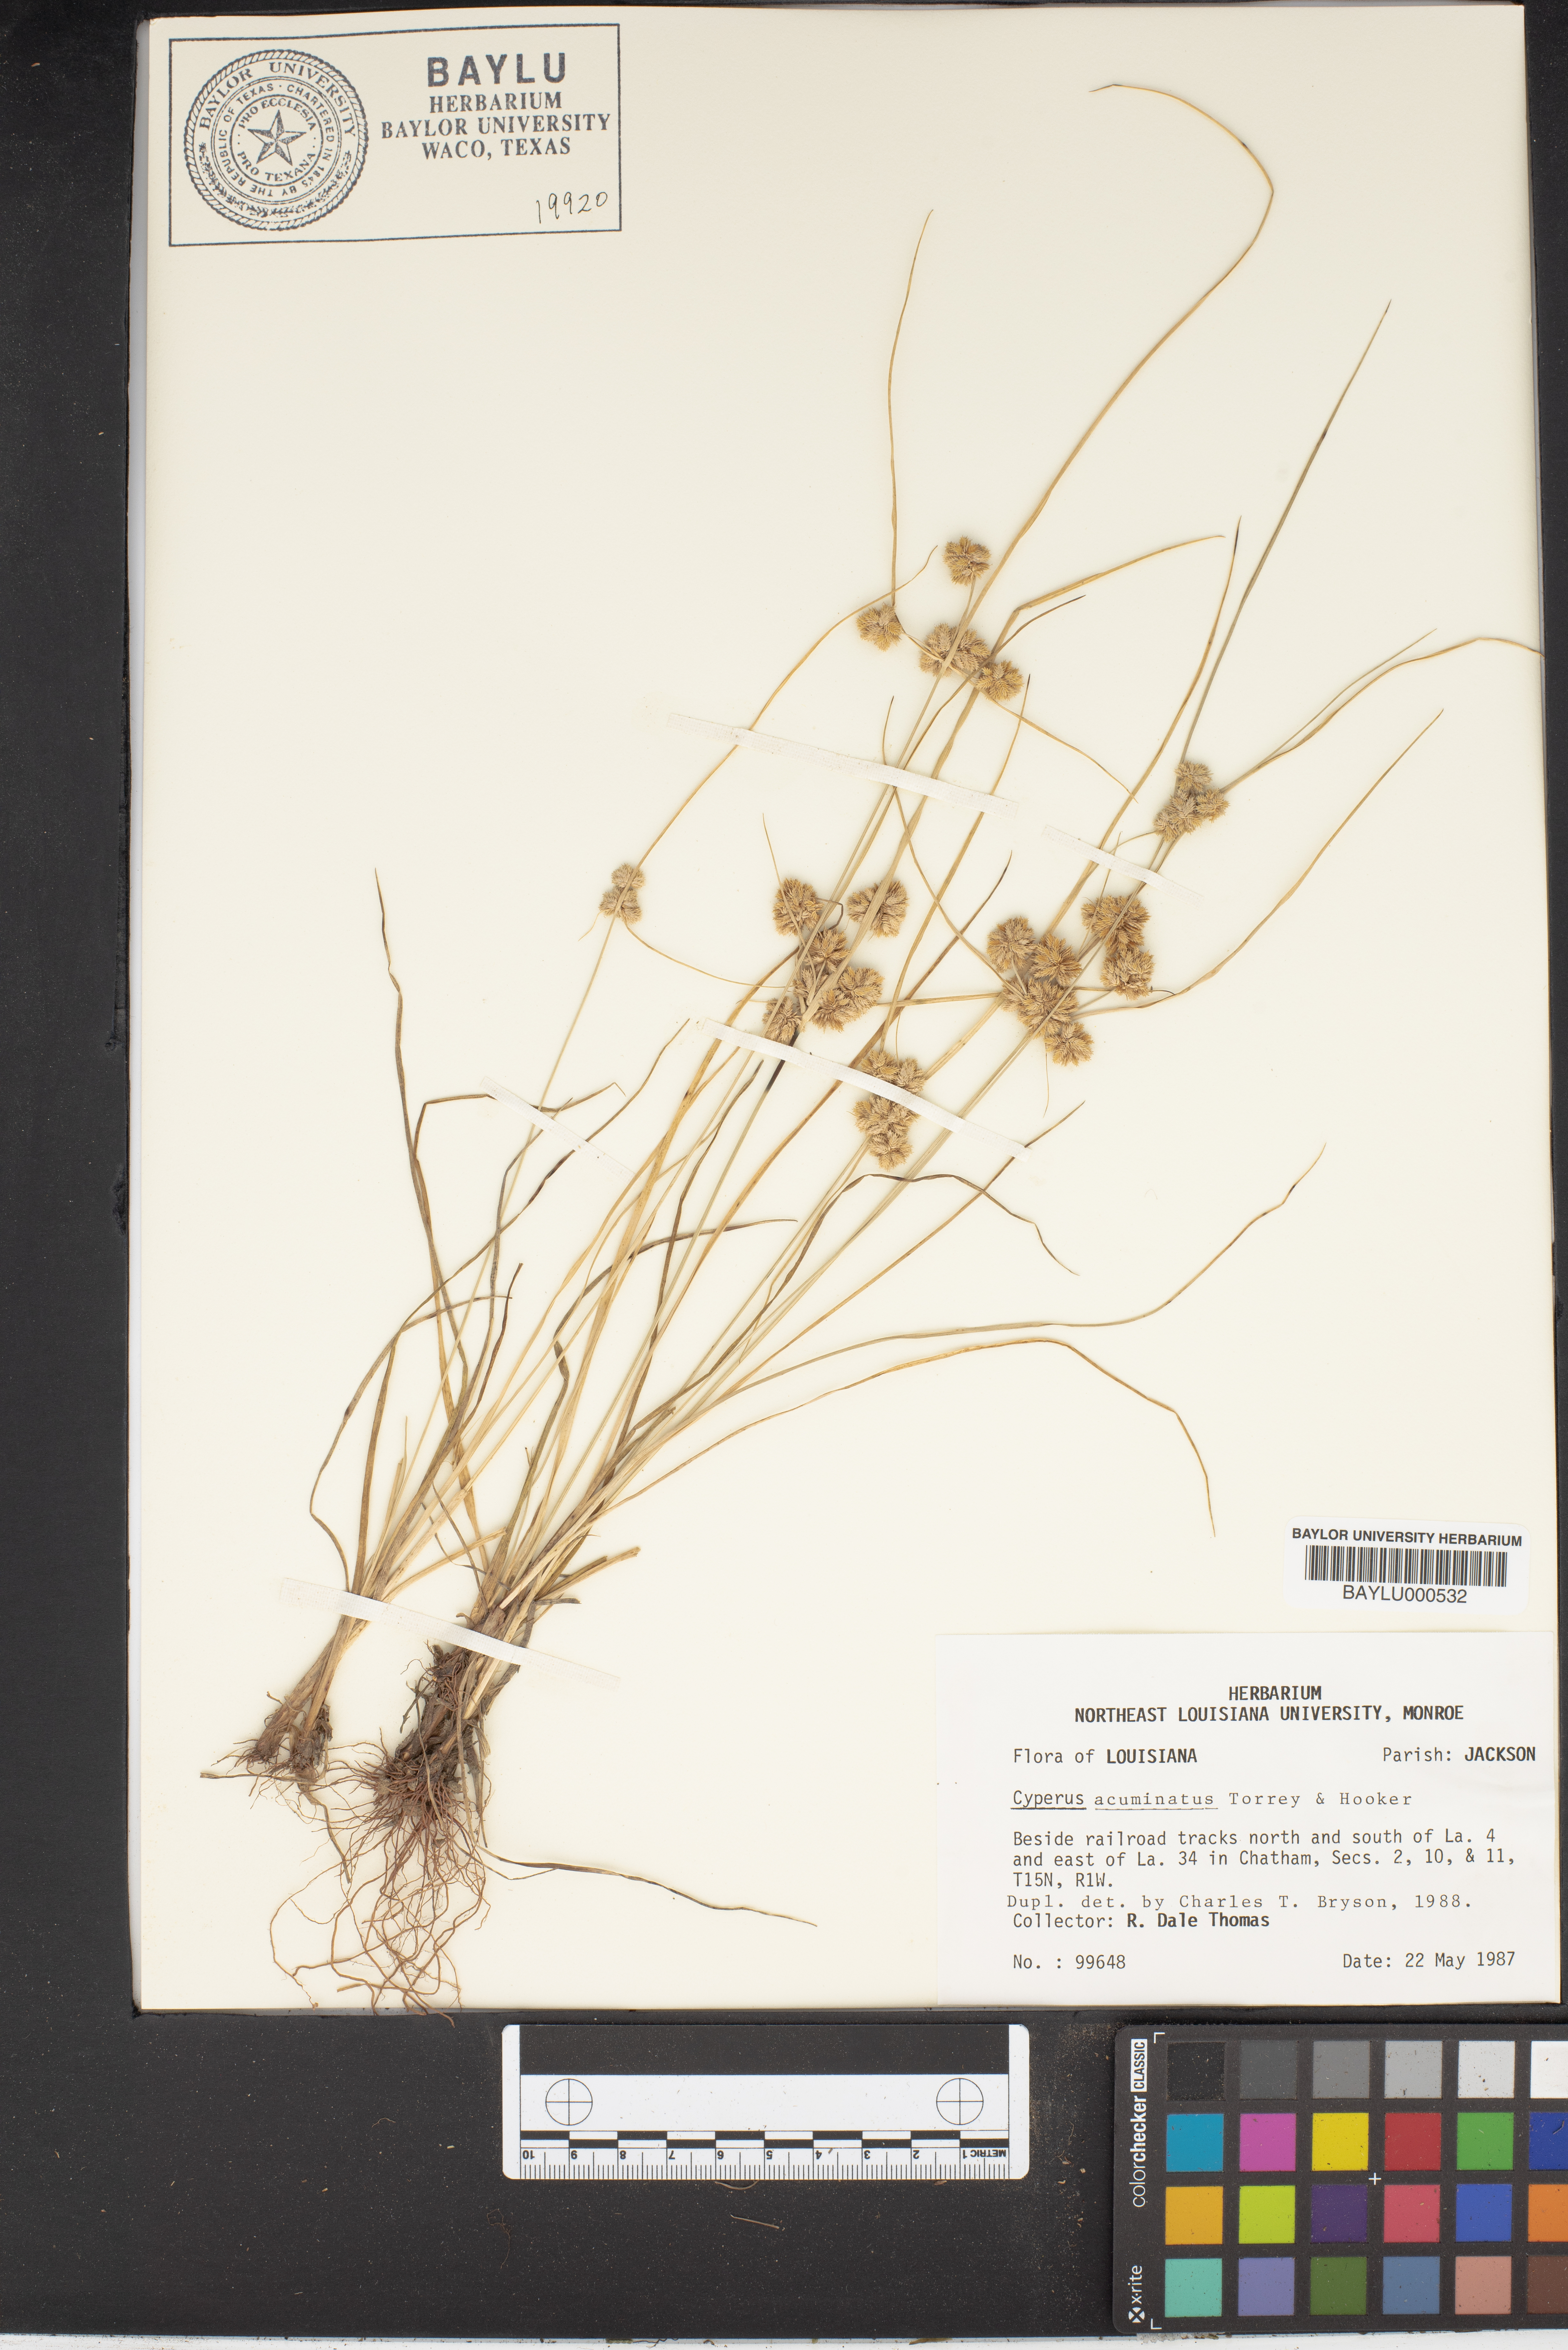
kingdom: Plantae
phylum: Tracheophyta
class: Liliopsida
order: Poales
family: Cyperaceae
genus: Cyperus
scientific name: Cyperus acuminatus
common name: Short-pointed cyperus
